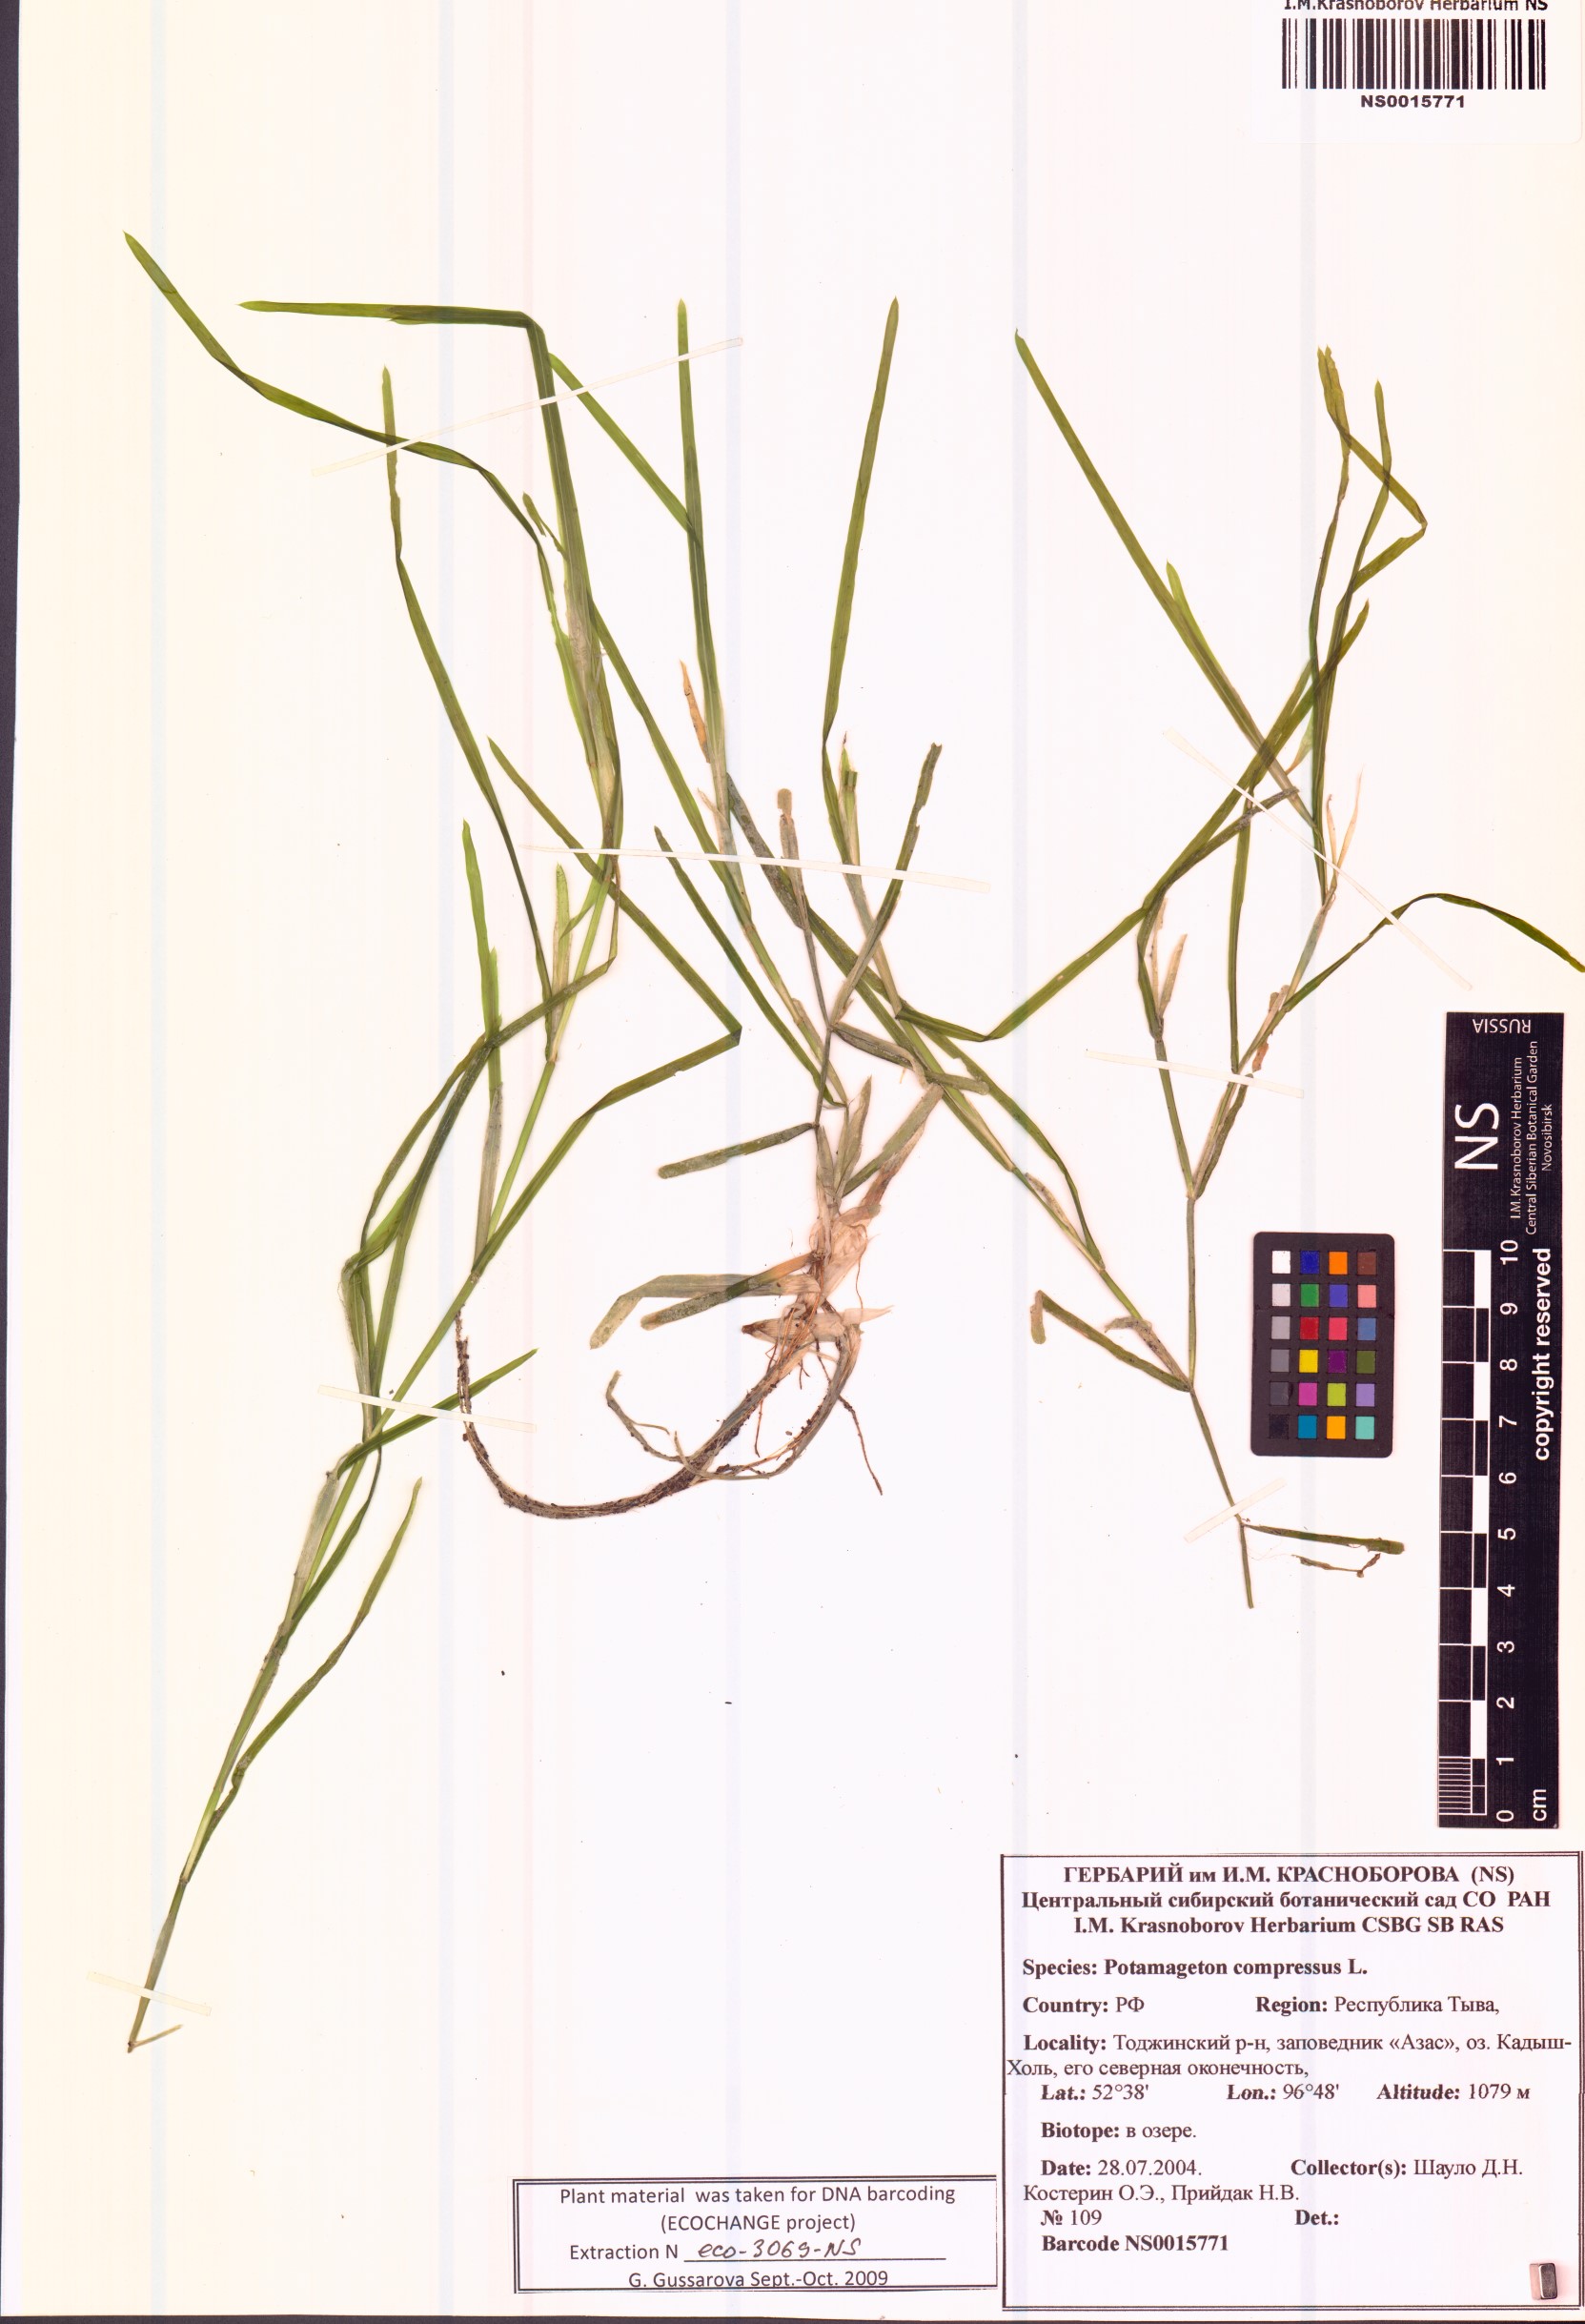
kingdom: Plantae
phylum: Tracheophyta
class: Liliopsida
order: Alismatales
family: Potamogetonaceae
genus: Potamogeton
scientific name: Potamogeton compressus
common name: Grass-wrack pondweed
